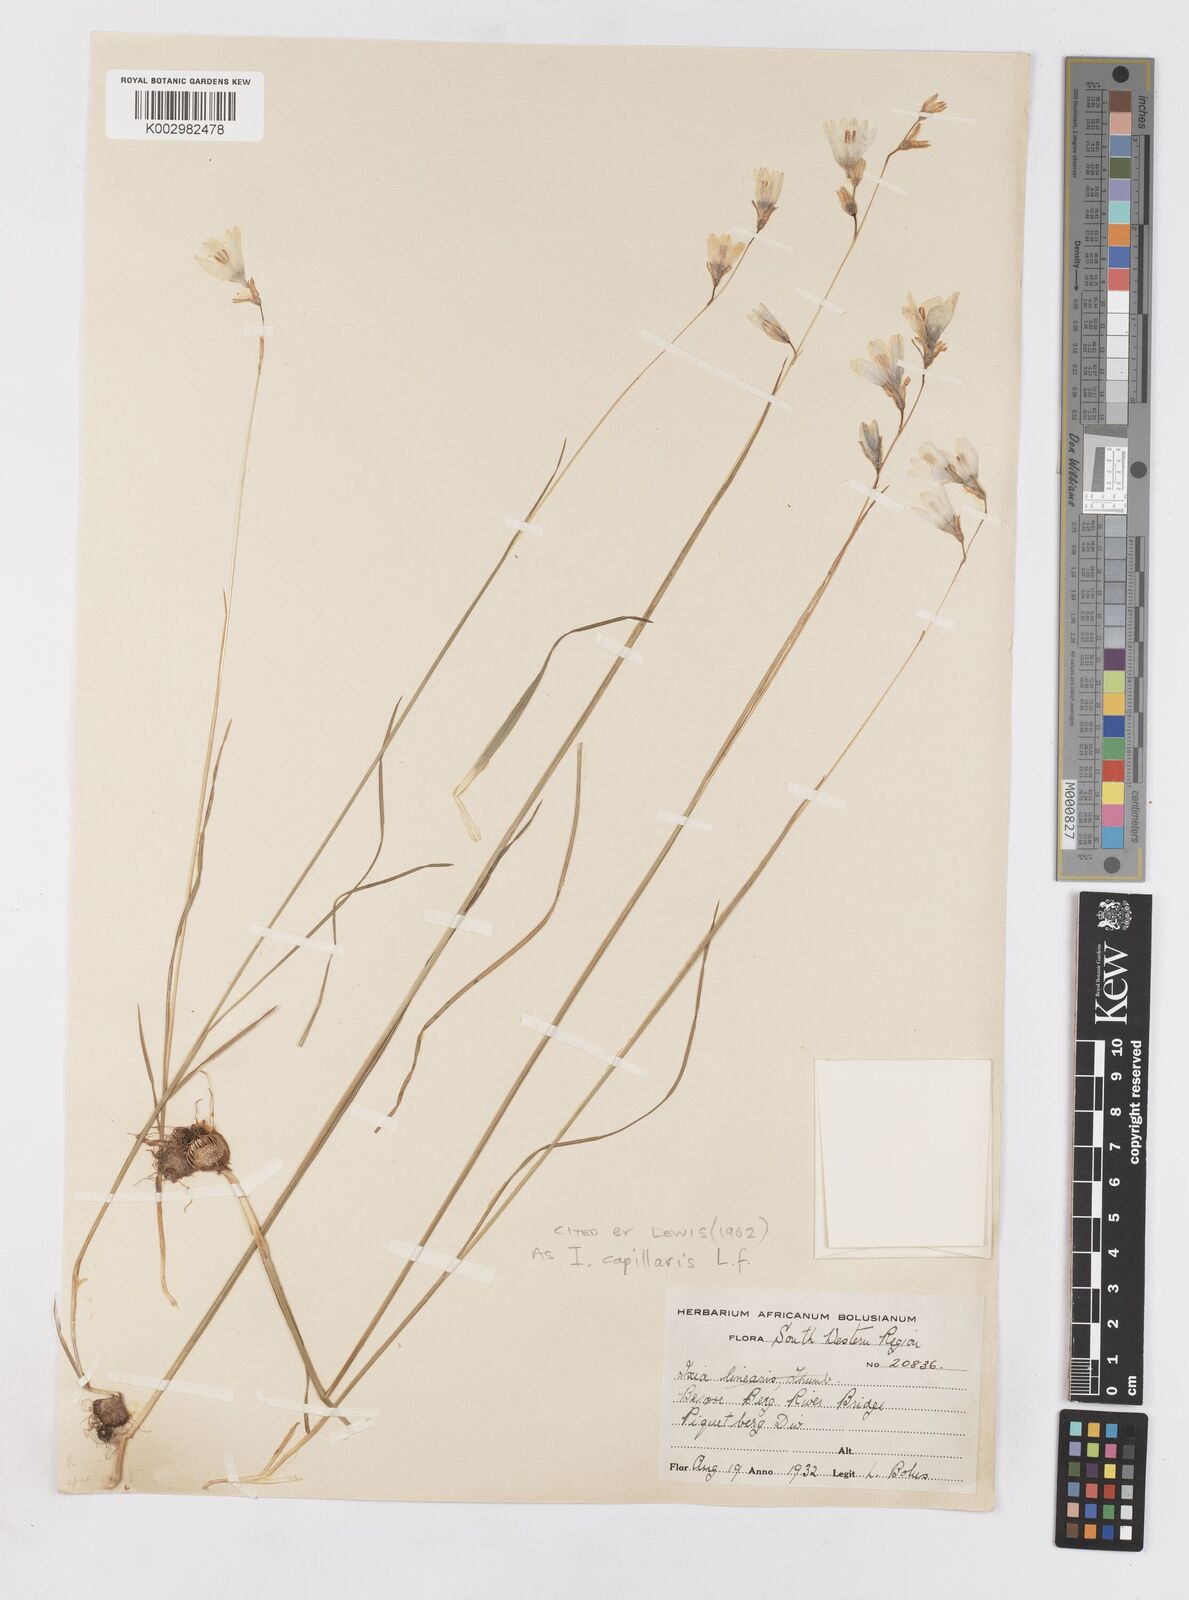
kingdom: Plantae
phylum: Tracheophyta
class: Liliopsida
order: Asparagales
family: Iridaceae
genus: Ixia
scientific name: Ixia capillaris
